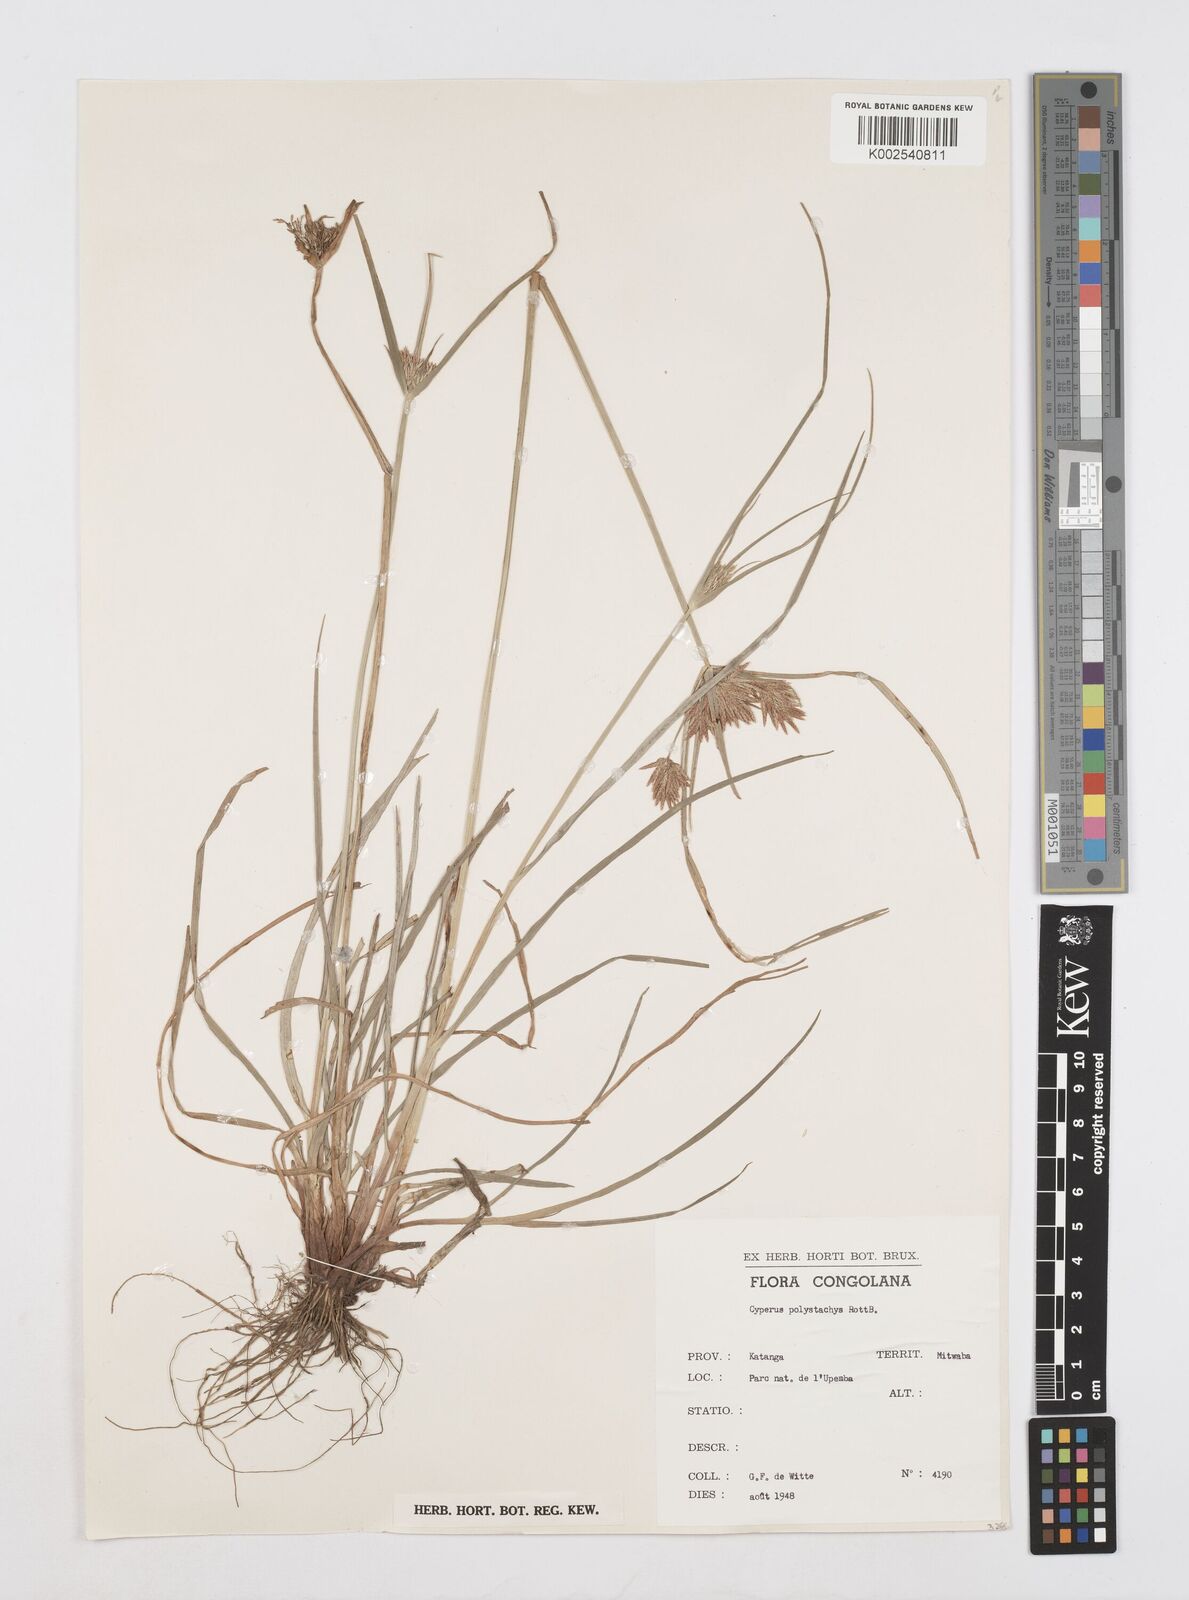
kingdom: Plantae
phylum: Tracheophyta
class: Liliopsida
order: Poales
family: Cyperaceae
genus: Cyperus
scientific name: Cyperus polystachyos
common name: Bunchy flat sedge
